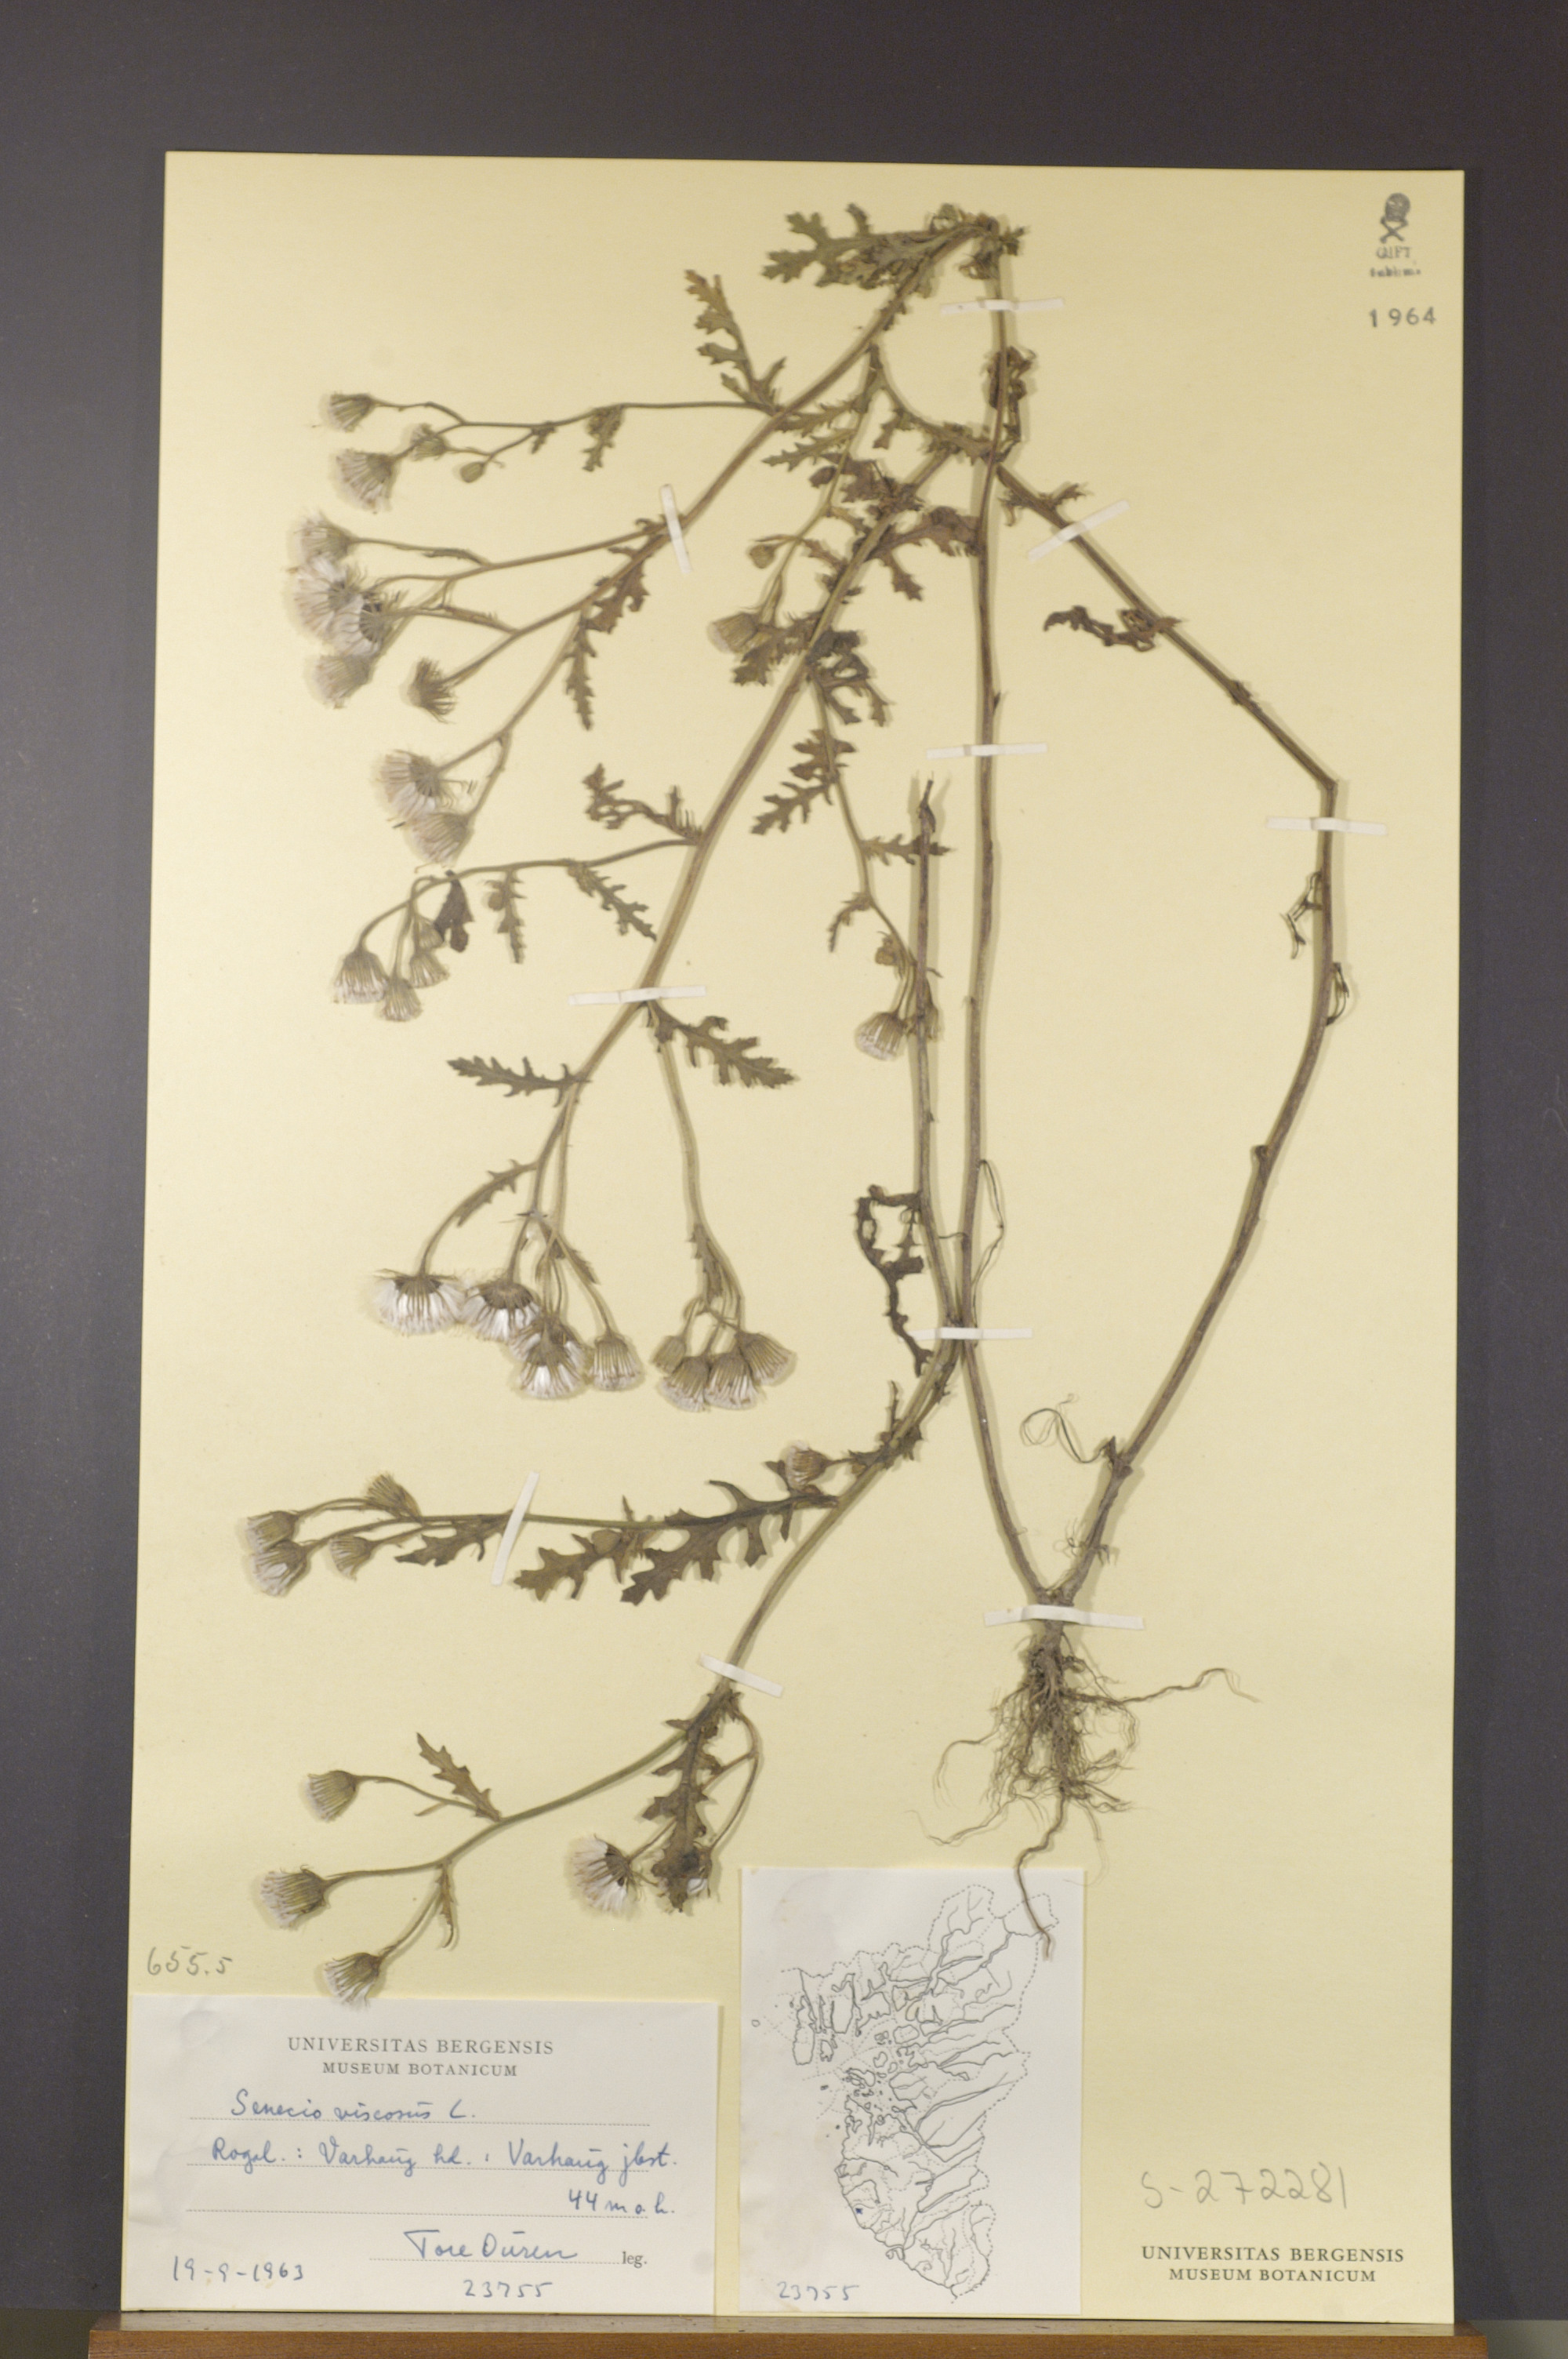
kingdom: Plantae
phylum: Tracheophyta
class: Magnoliopsida
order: Asterales
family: Asteraceae
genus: Senecio
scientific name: Senecio viscosus
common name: Sticky groundsel
